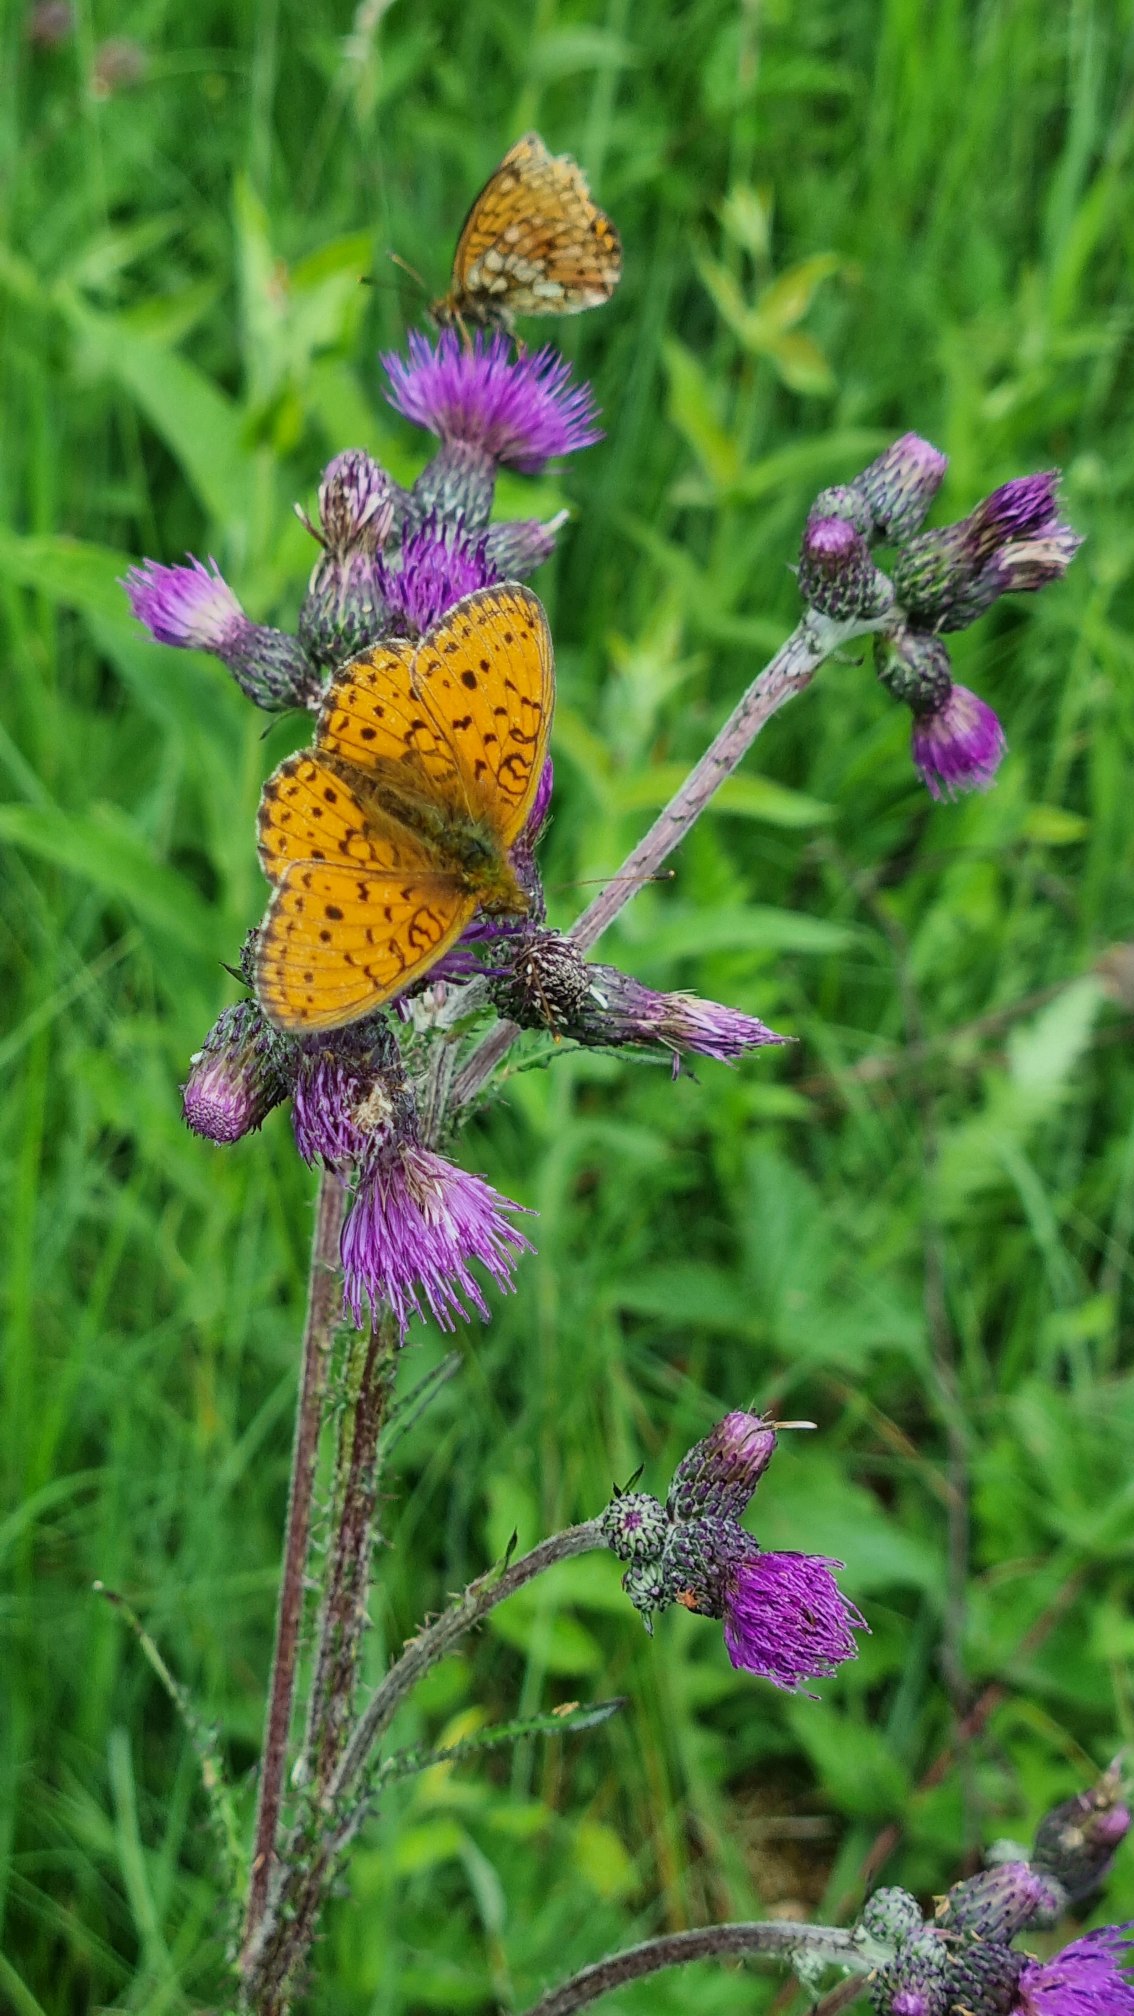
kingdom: Animalia
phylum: Arthropoda
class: Insecta
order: Lepidoptera
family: Nymphalidae
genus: Brenthis
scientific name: Brenthis ino
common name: Engperlemorsommerfugl
